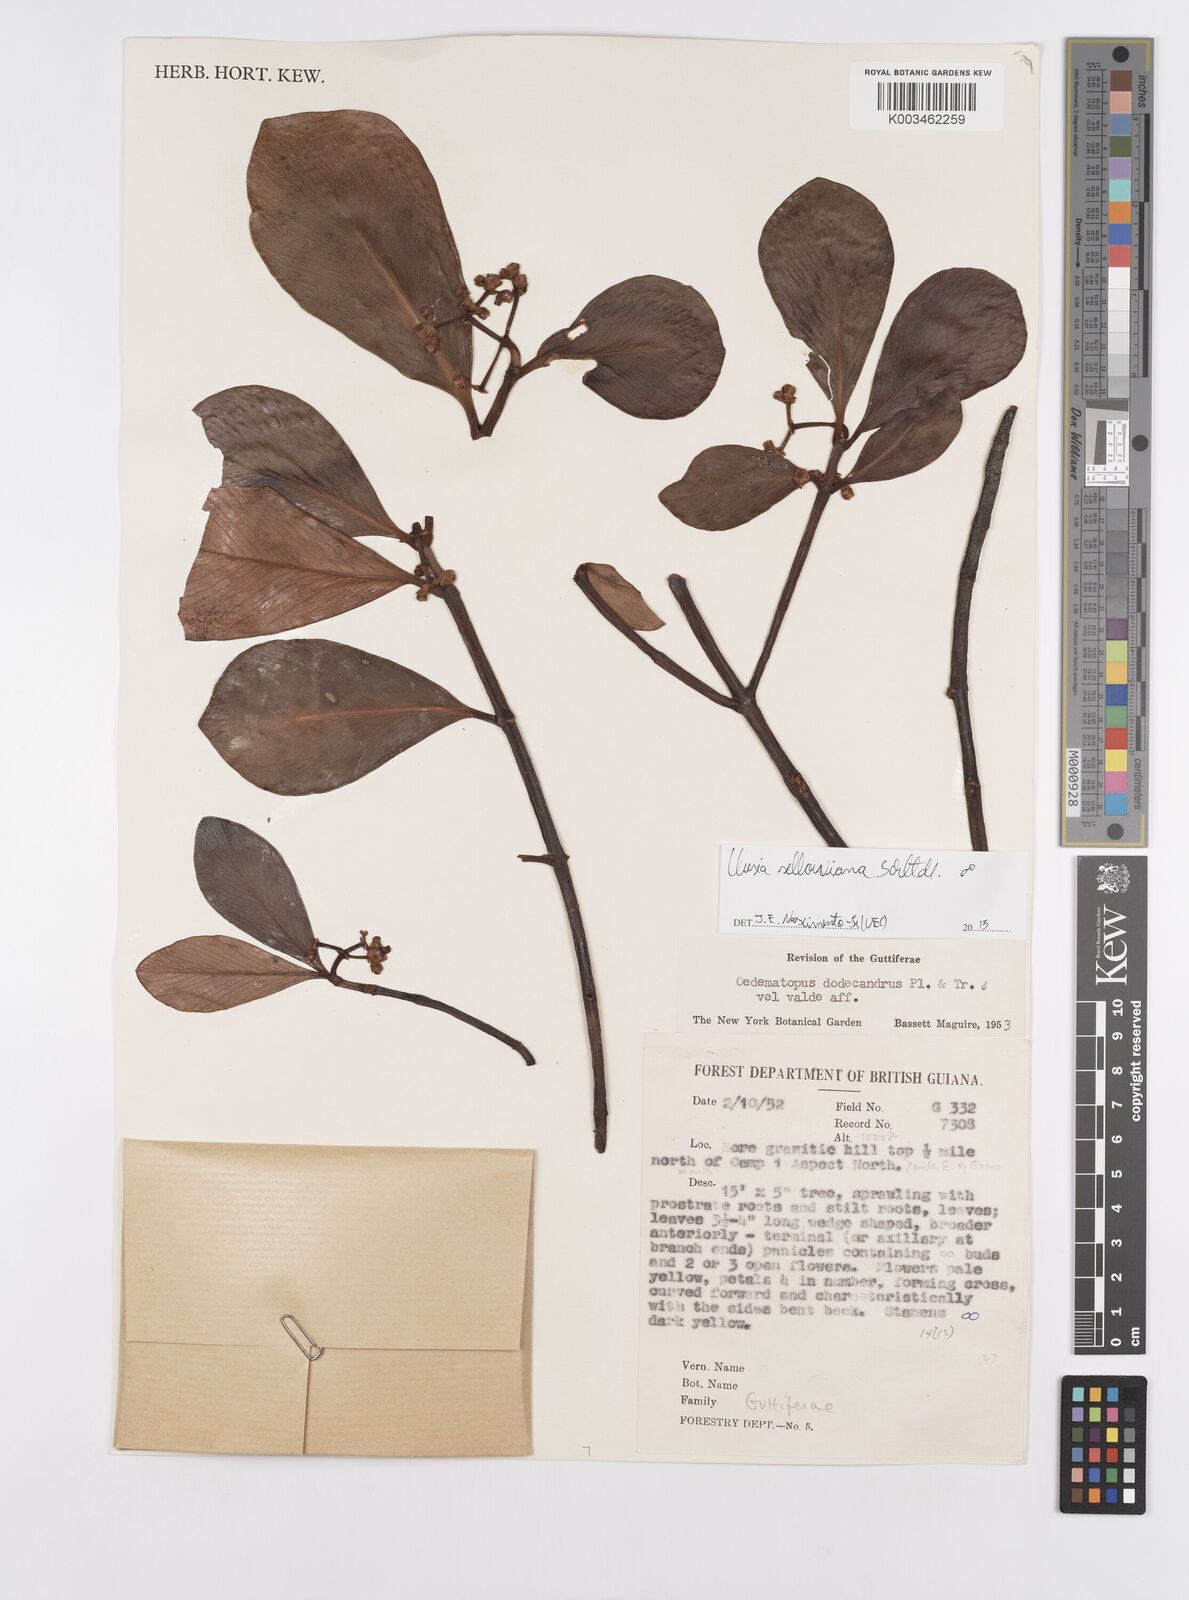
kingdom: Plantae
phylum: Tracheophyta
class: Magnoliopsida
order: Malpighiales
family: Clusiaceae
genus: Clusia
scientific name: Clusia sellowiana
